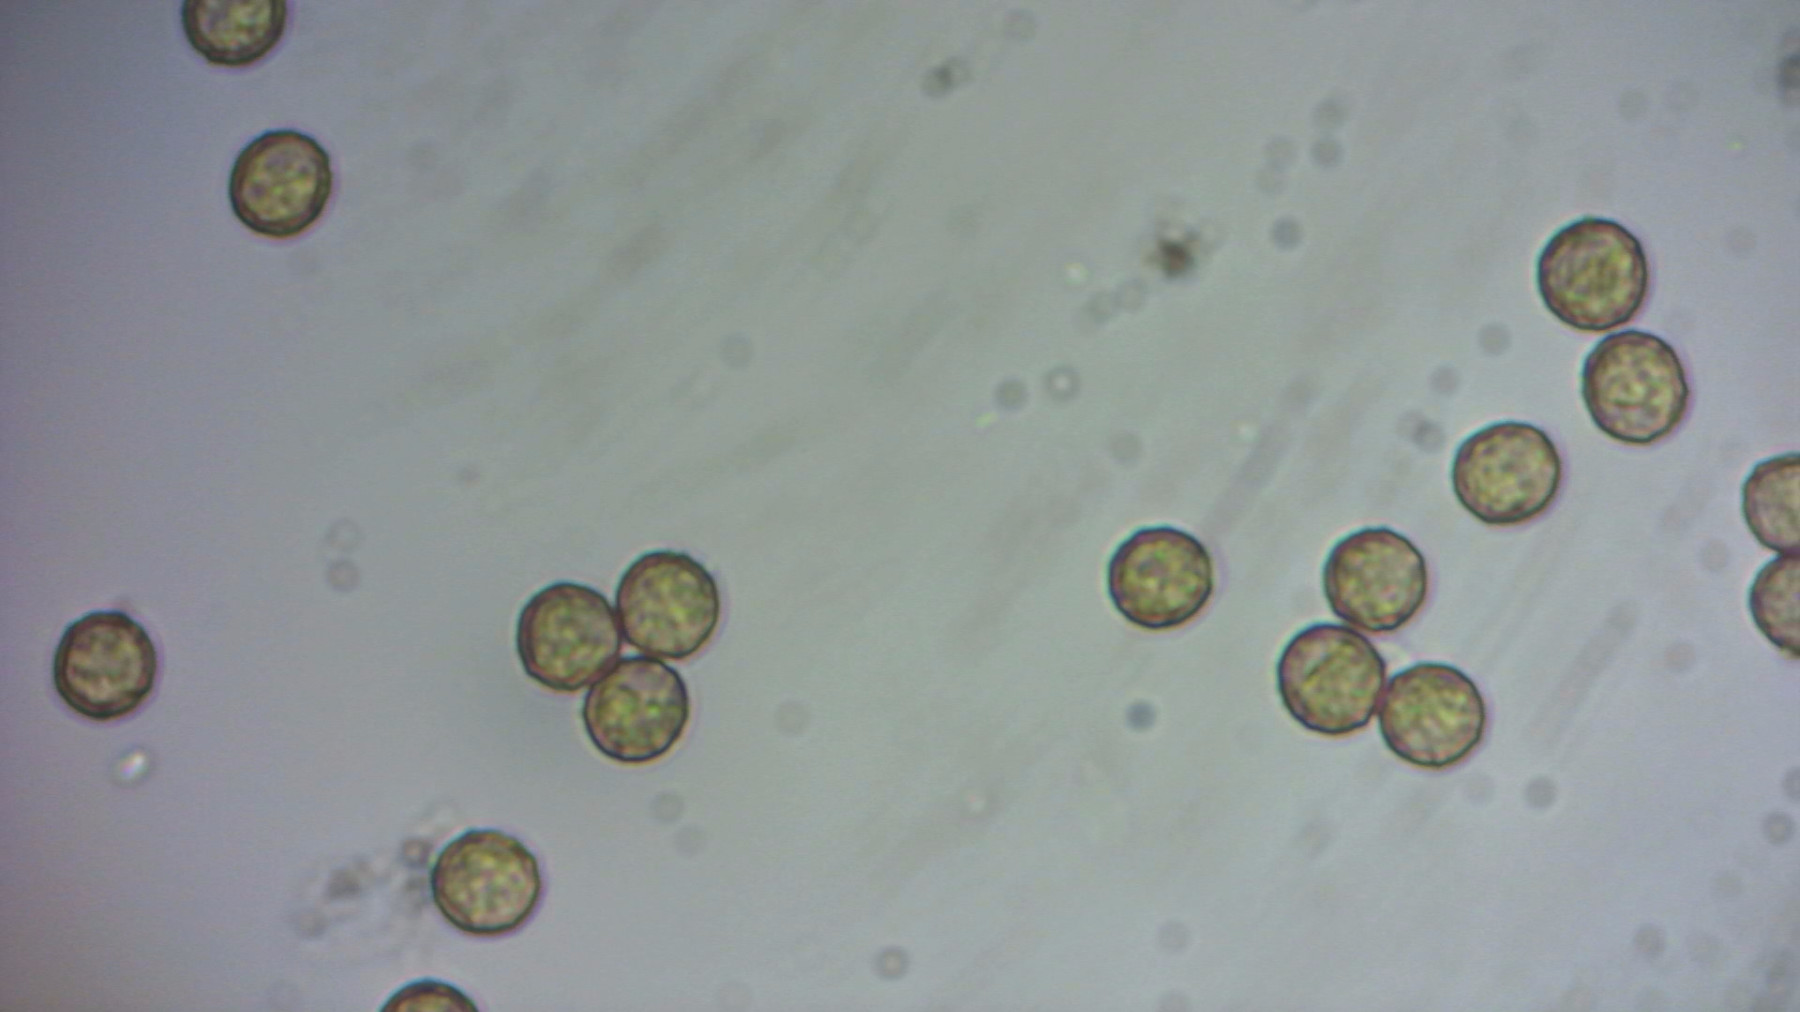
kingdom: Protozoa
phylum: Mycetozoa
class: Myxomycetes
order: Cribrariales
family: Cribrariaceae
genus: Cribraria
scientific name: Cribraria rufa
